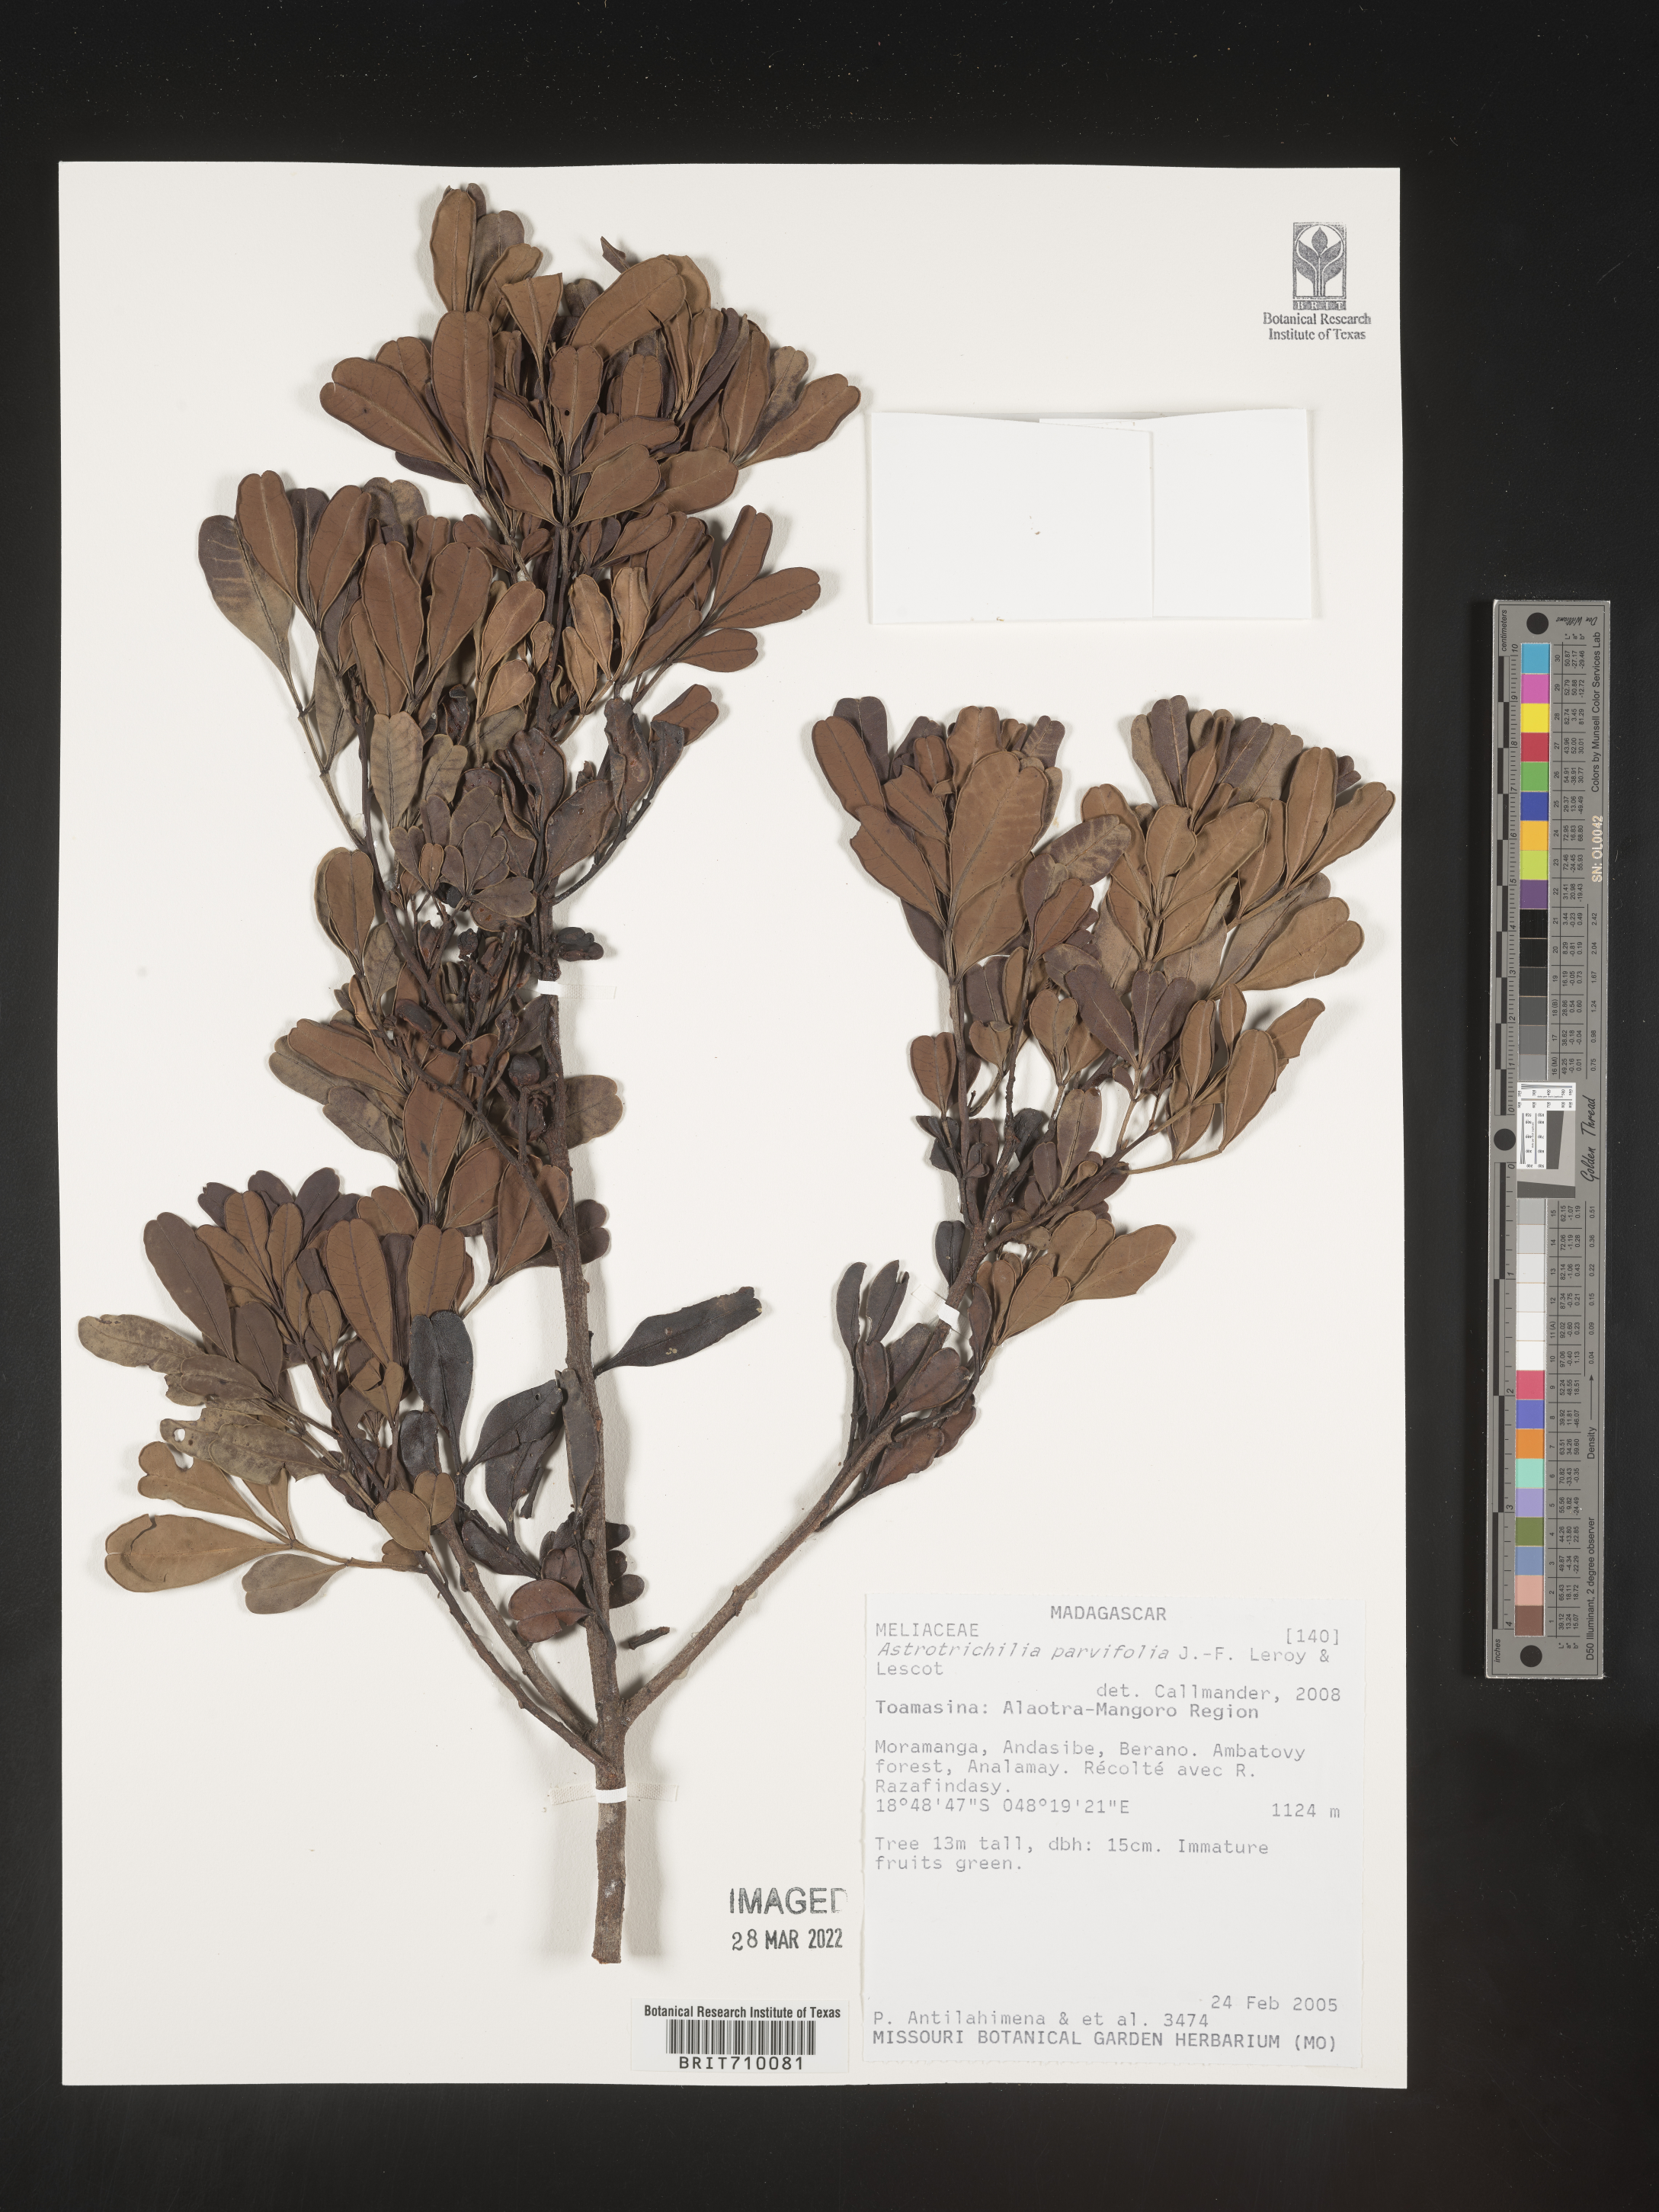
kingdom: Plantae
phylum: Tracheophyta
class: Magnoliopsida
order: Sapindales
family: Meliaceae
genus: Astrotrichilia
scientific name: Astrotrichilia
